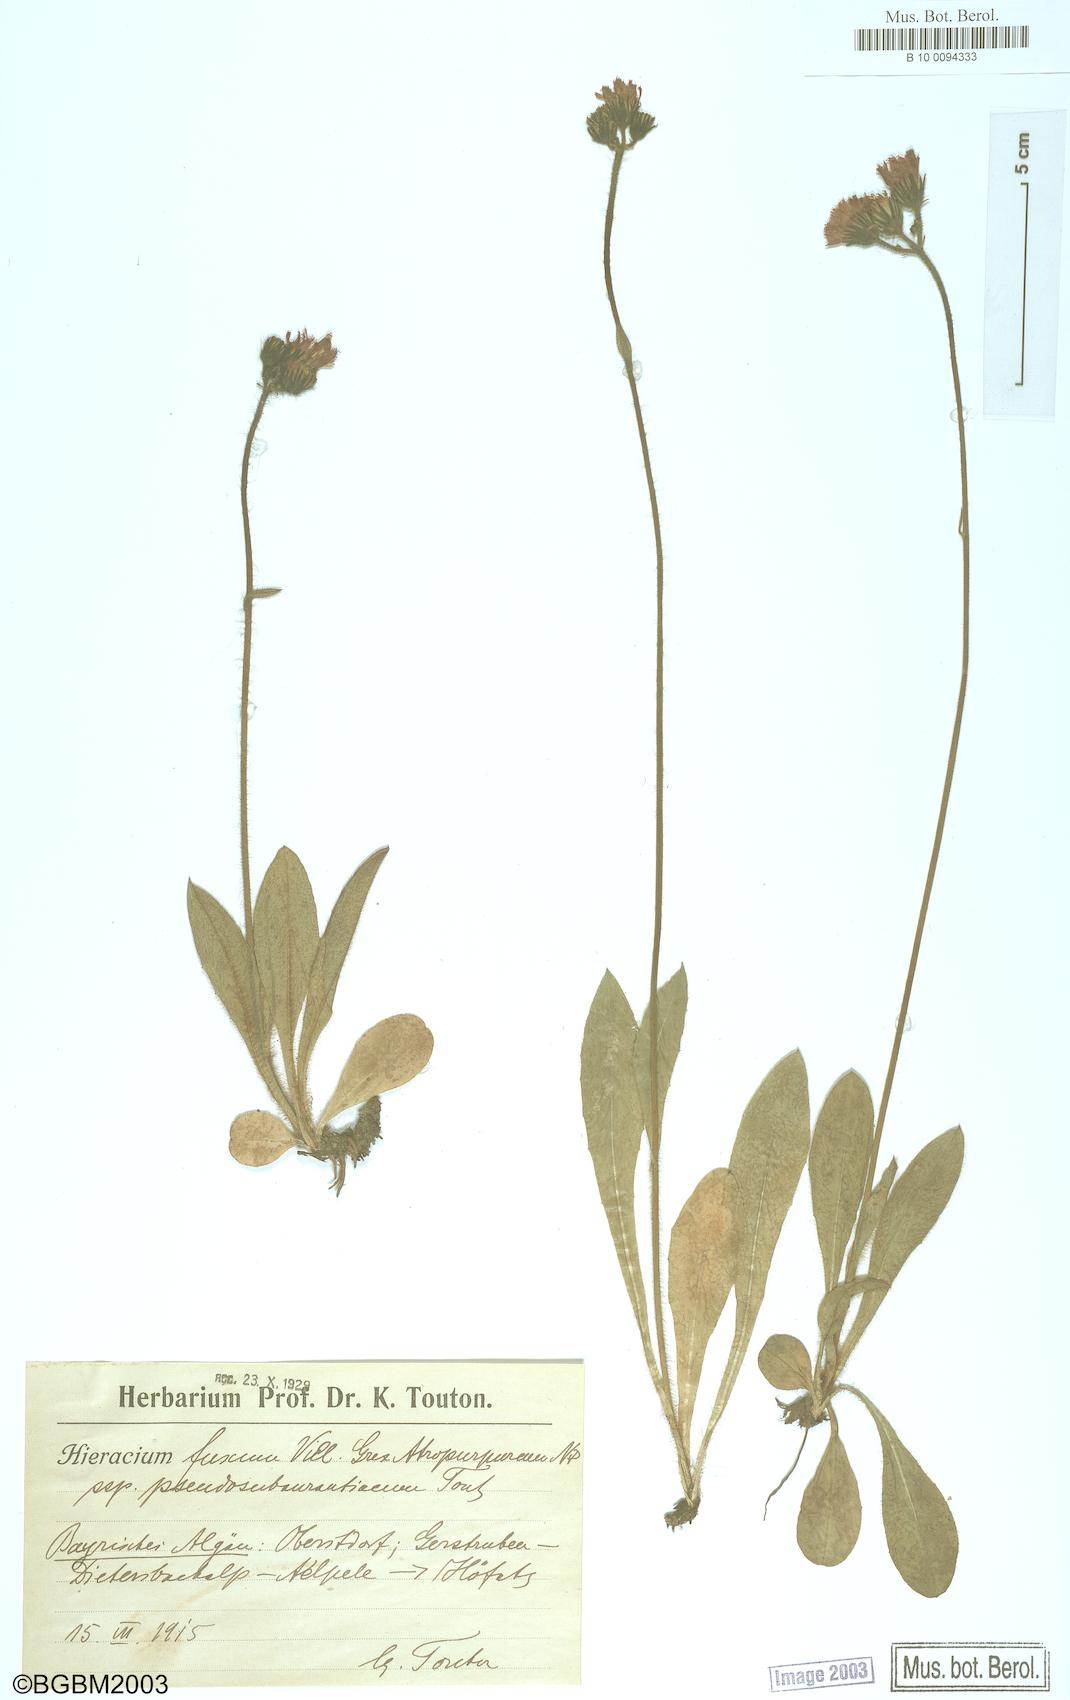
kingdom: Plantae
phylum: Tracheophyta
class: Magnoliopsida
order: Asterales
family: Asteraceae
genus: Hieracium
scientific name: Hieracium fuscum
